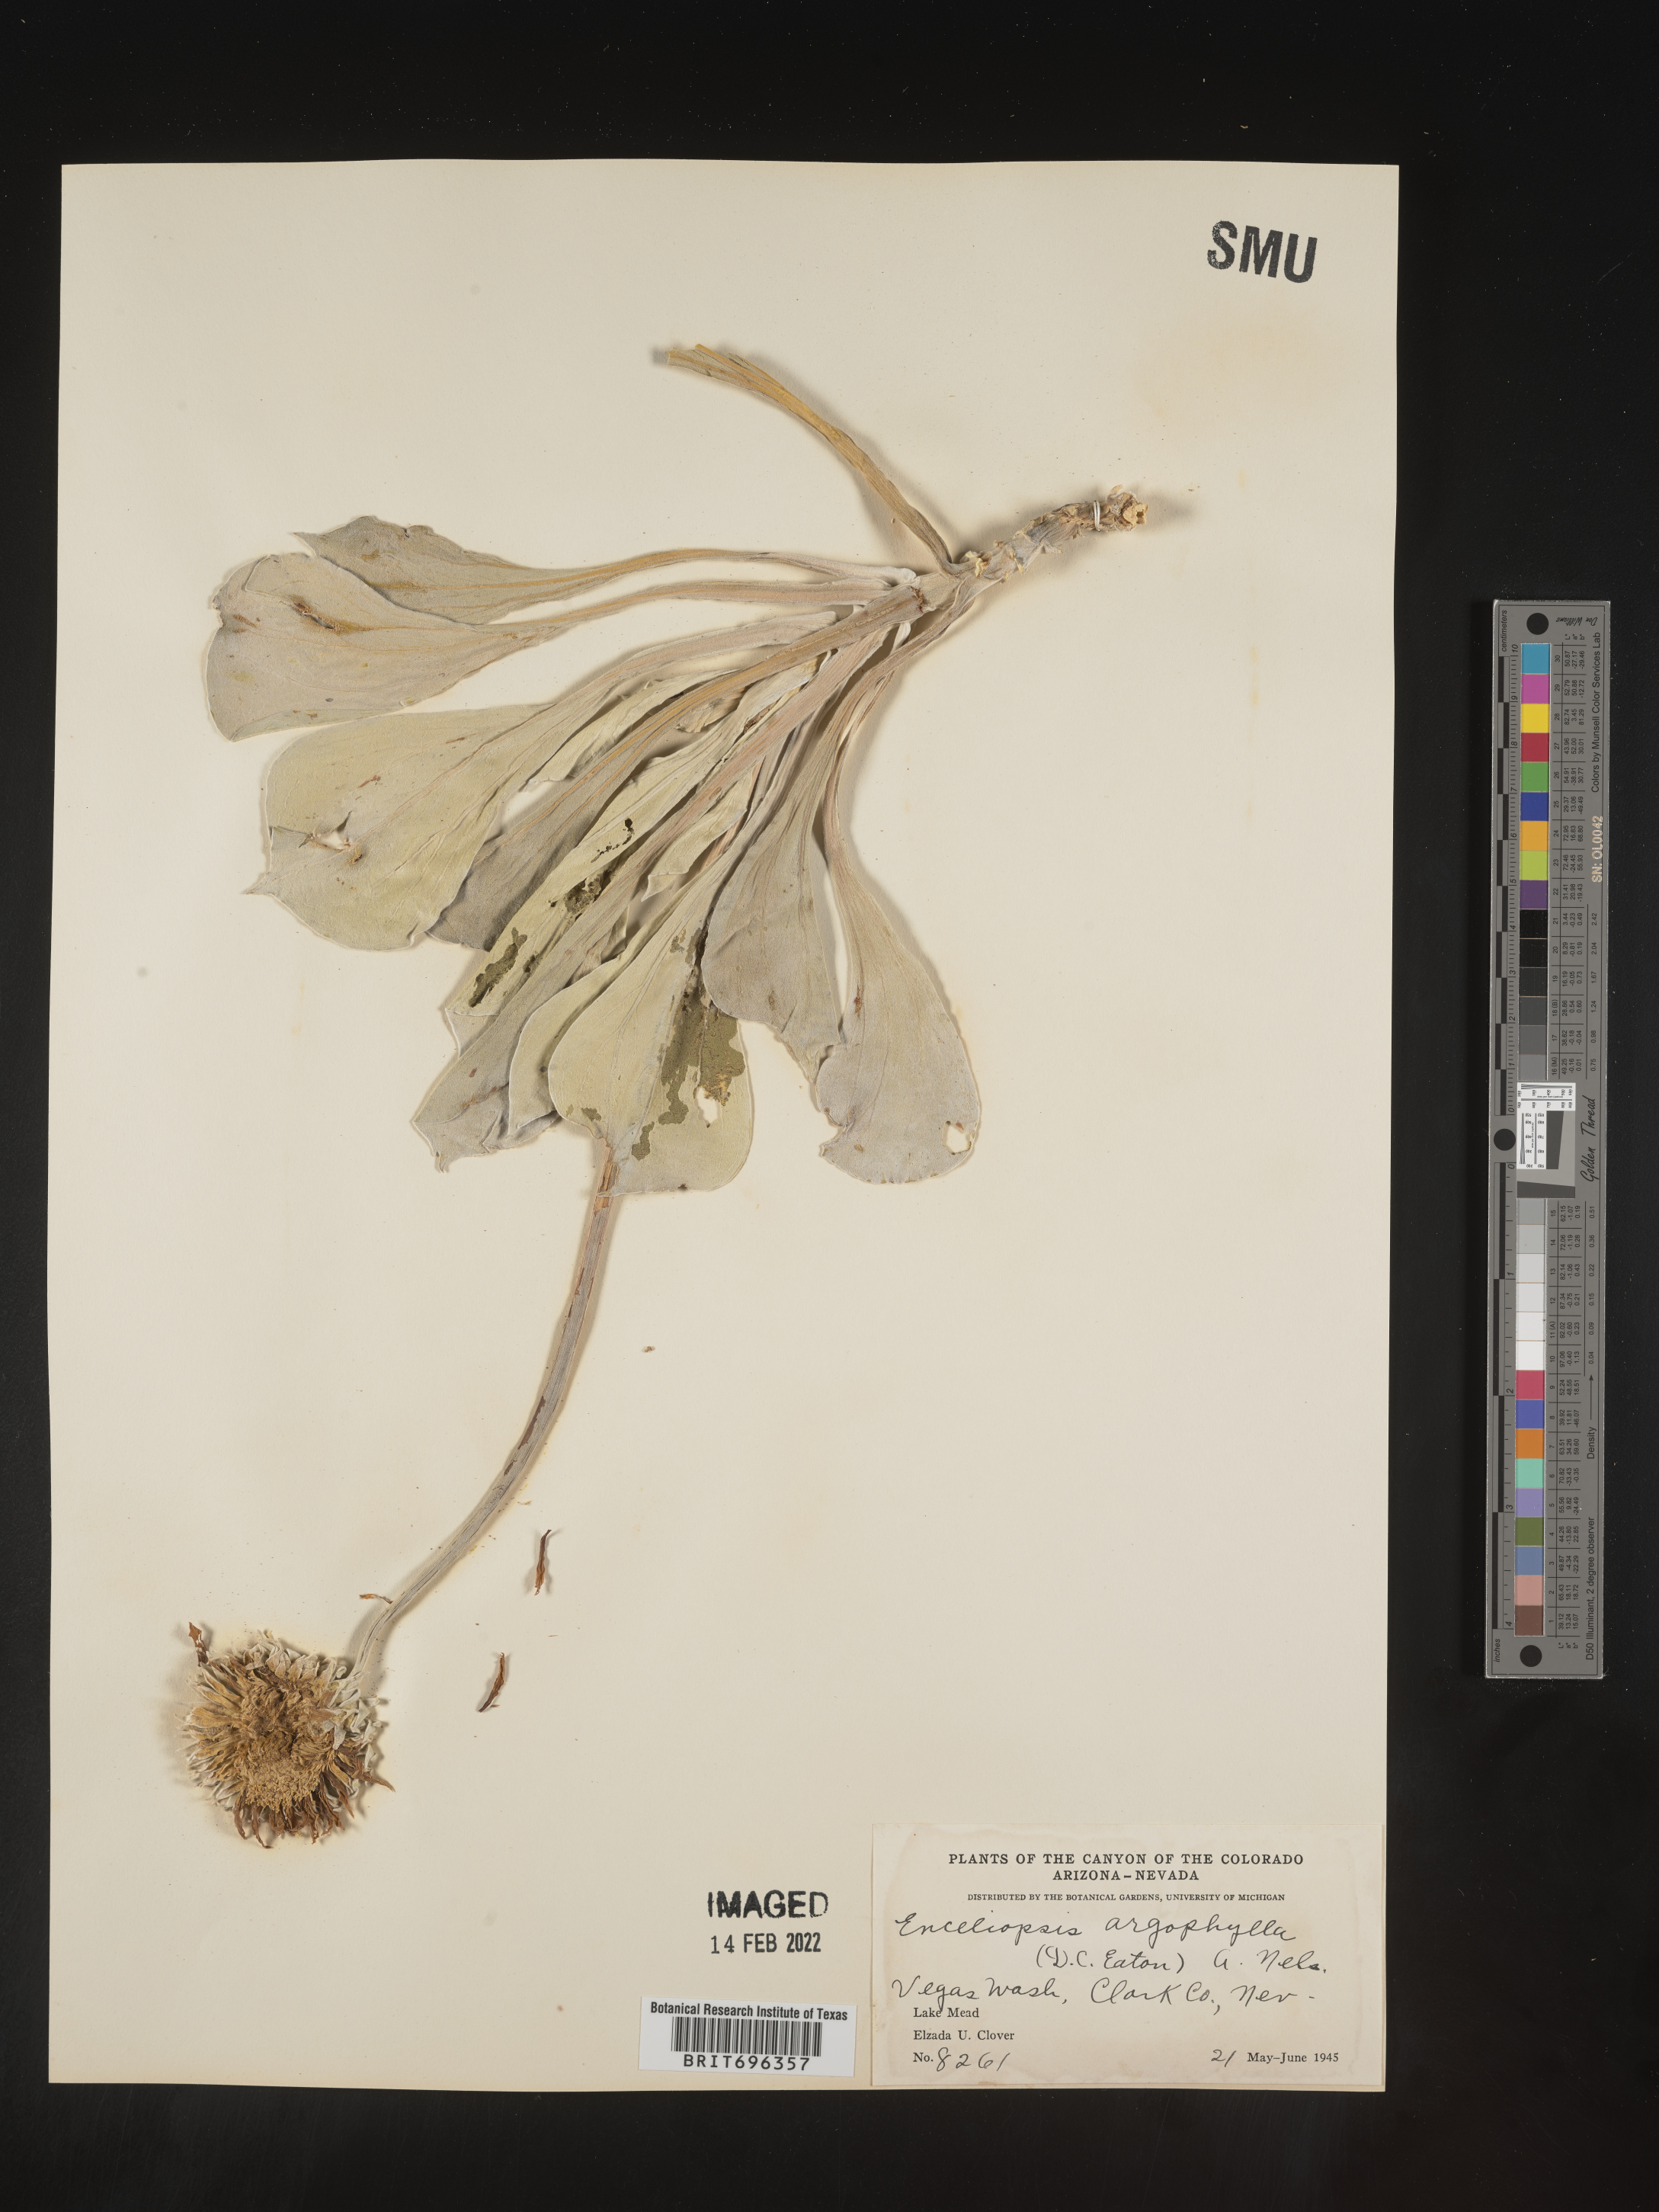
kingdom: Plantae
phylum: Tracheophyta
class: Magnoliopsida
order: Asterales
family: Asteraceae
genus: Enceliopsis
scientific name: Enceliopsis argophylla
